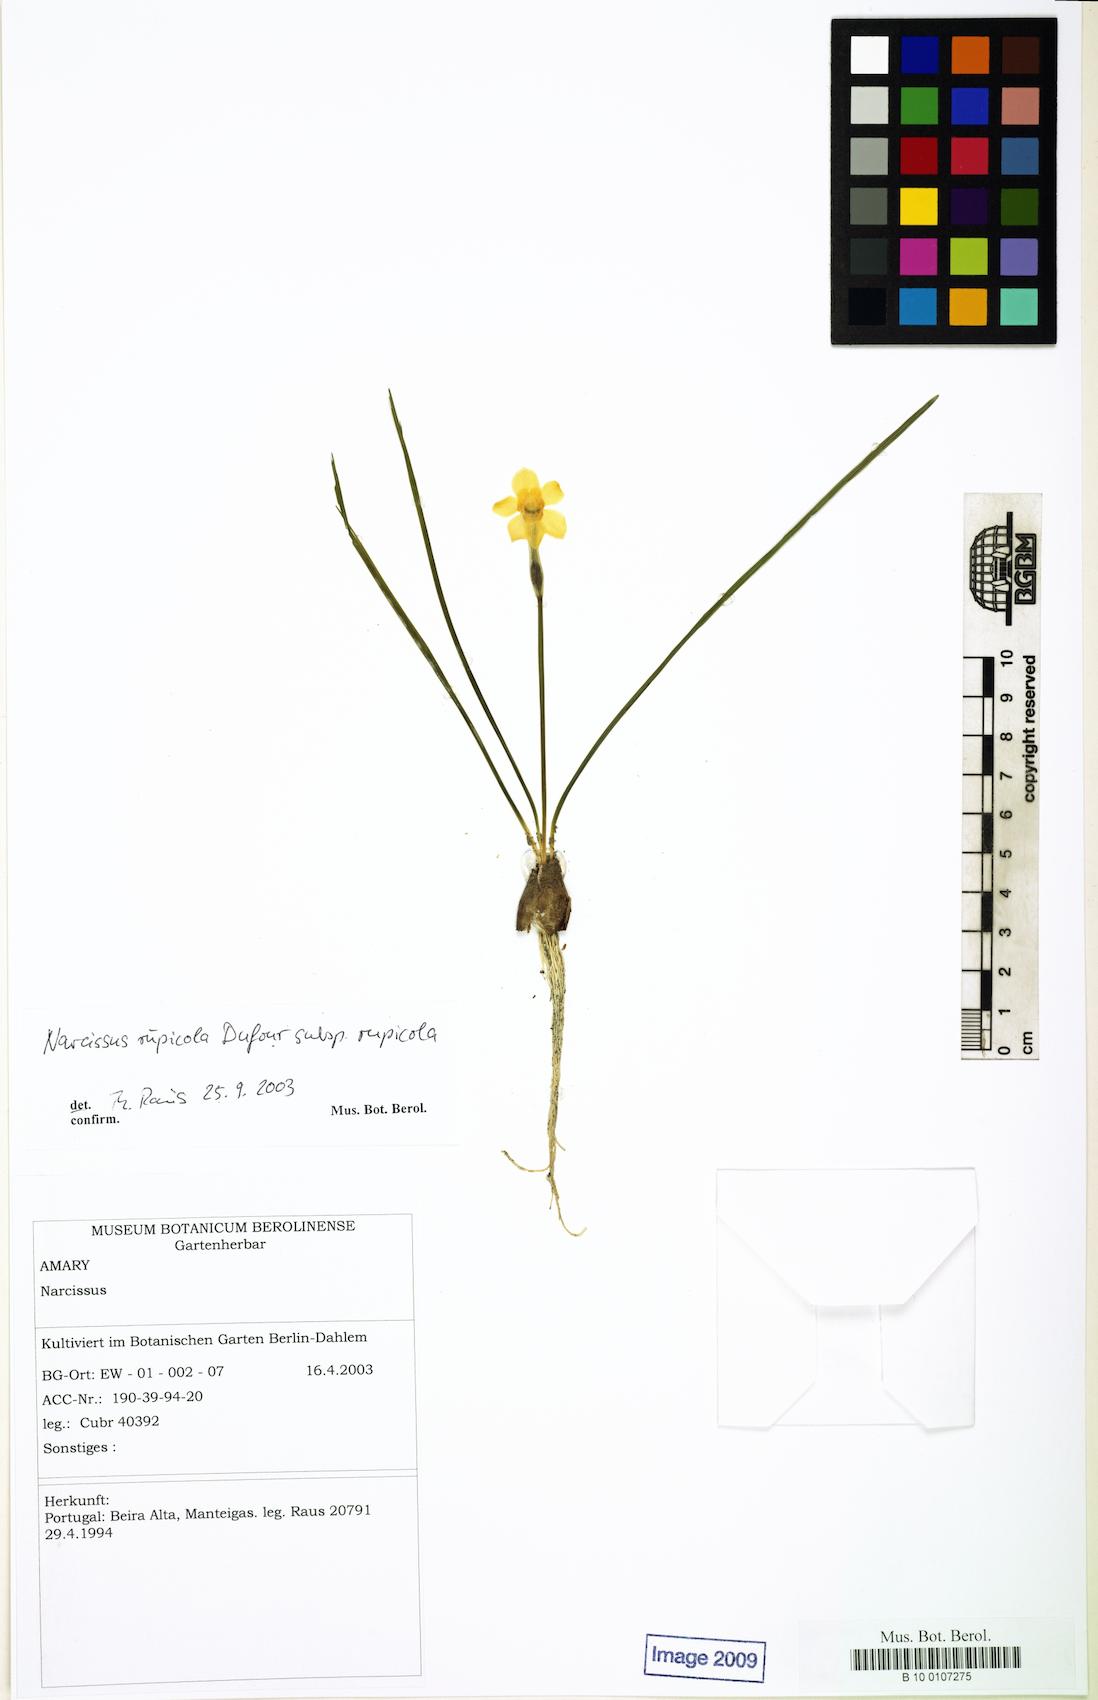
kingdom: Plantae
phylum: Tracheophyta
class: Liliopsida
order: Asparagales
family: Amaryllidaceae
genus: Narcissus
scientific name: Narcissus rupicola
